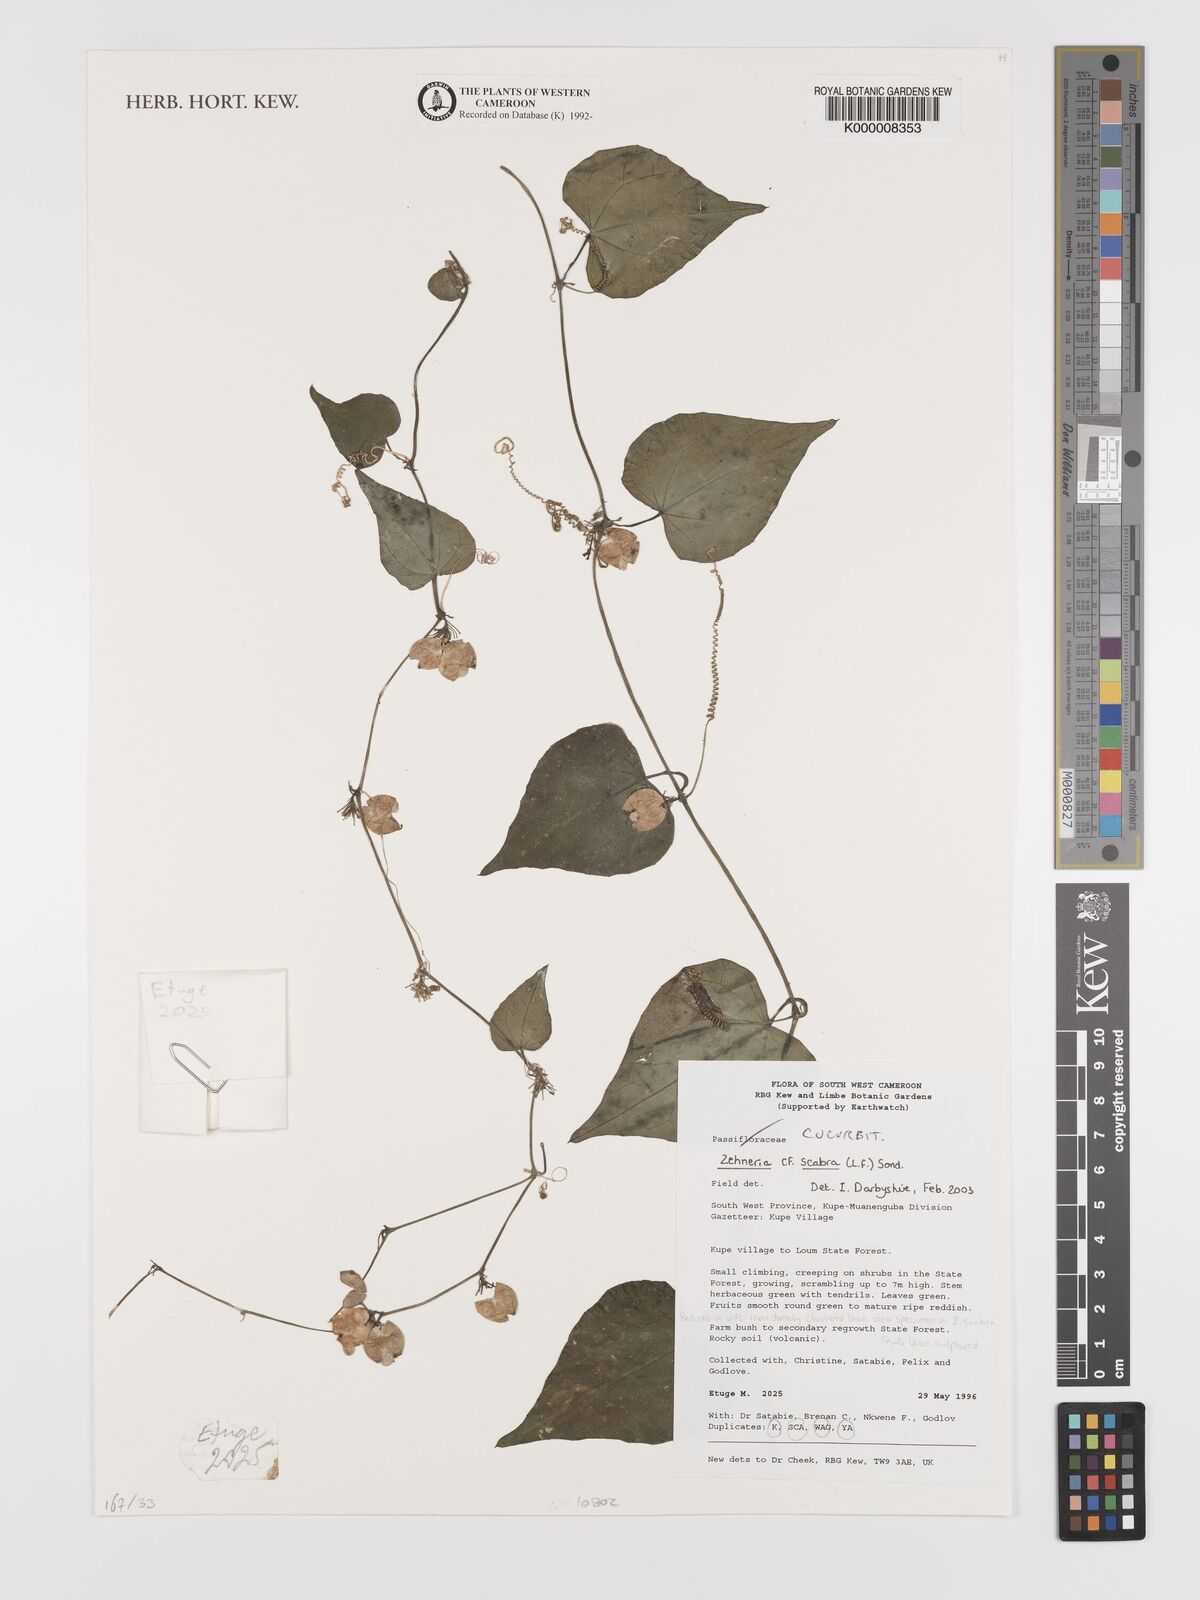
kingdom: Plantae
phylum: Tracheophyta
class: Magnoliopsida
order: Cucurbitales
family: Cucurbitaceae
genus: Zehneria
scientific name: Zehneria scabra
